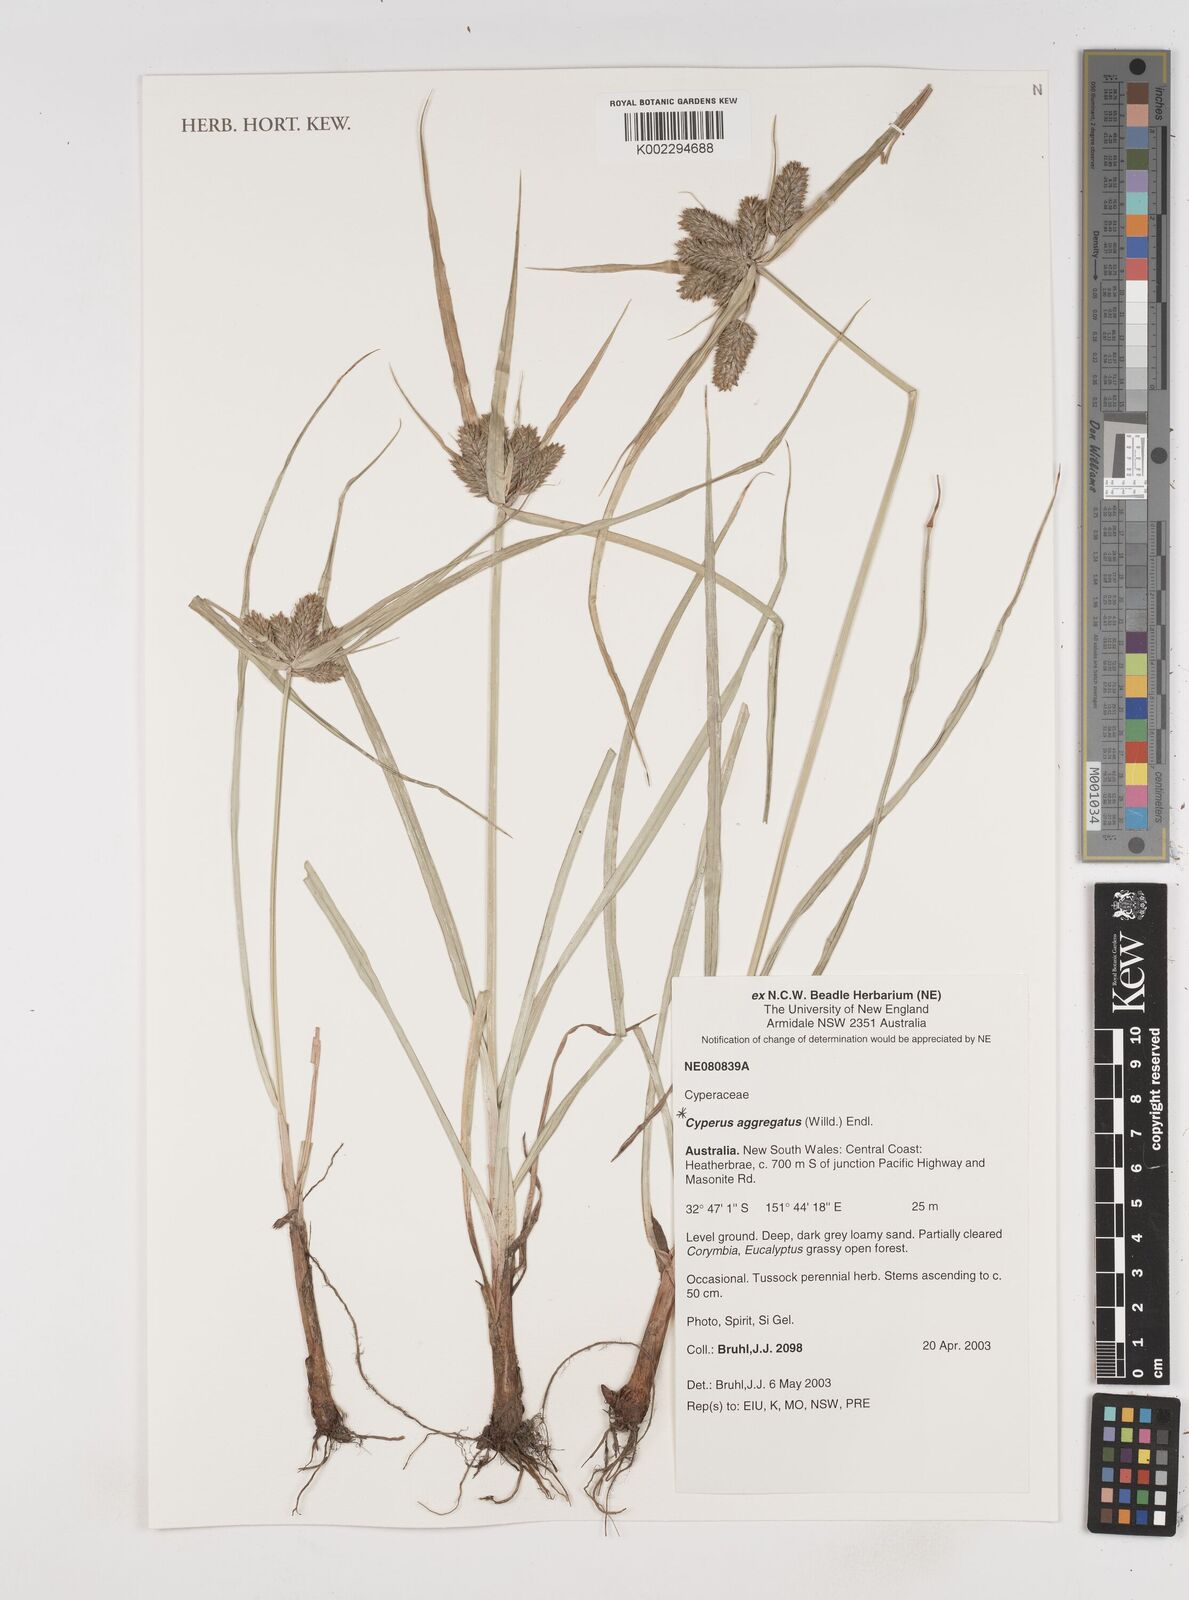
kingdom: Plantae
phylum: Tracheophyta
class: Liliopsida
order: Poales
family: Cyperaceae
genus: Cyperus
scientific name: Cyperus aggregatus
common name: Inflatedscale flatsedge
